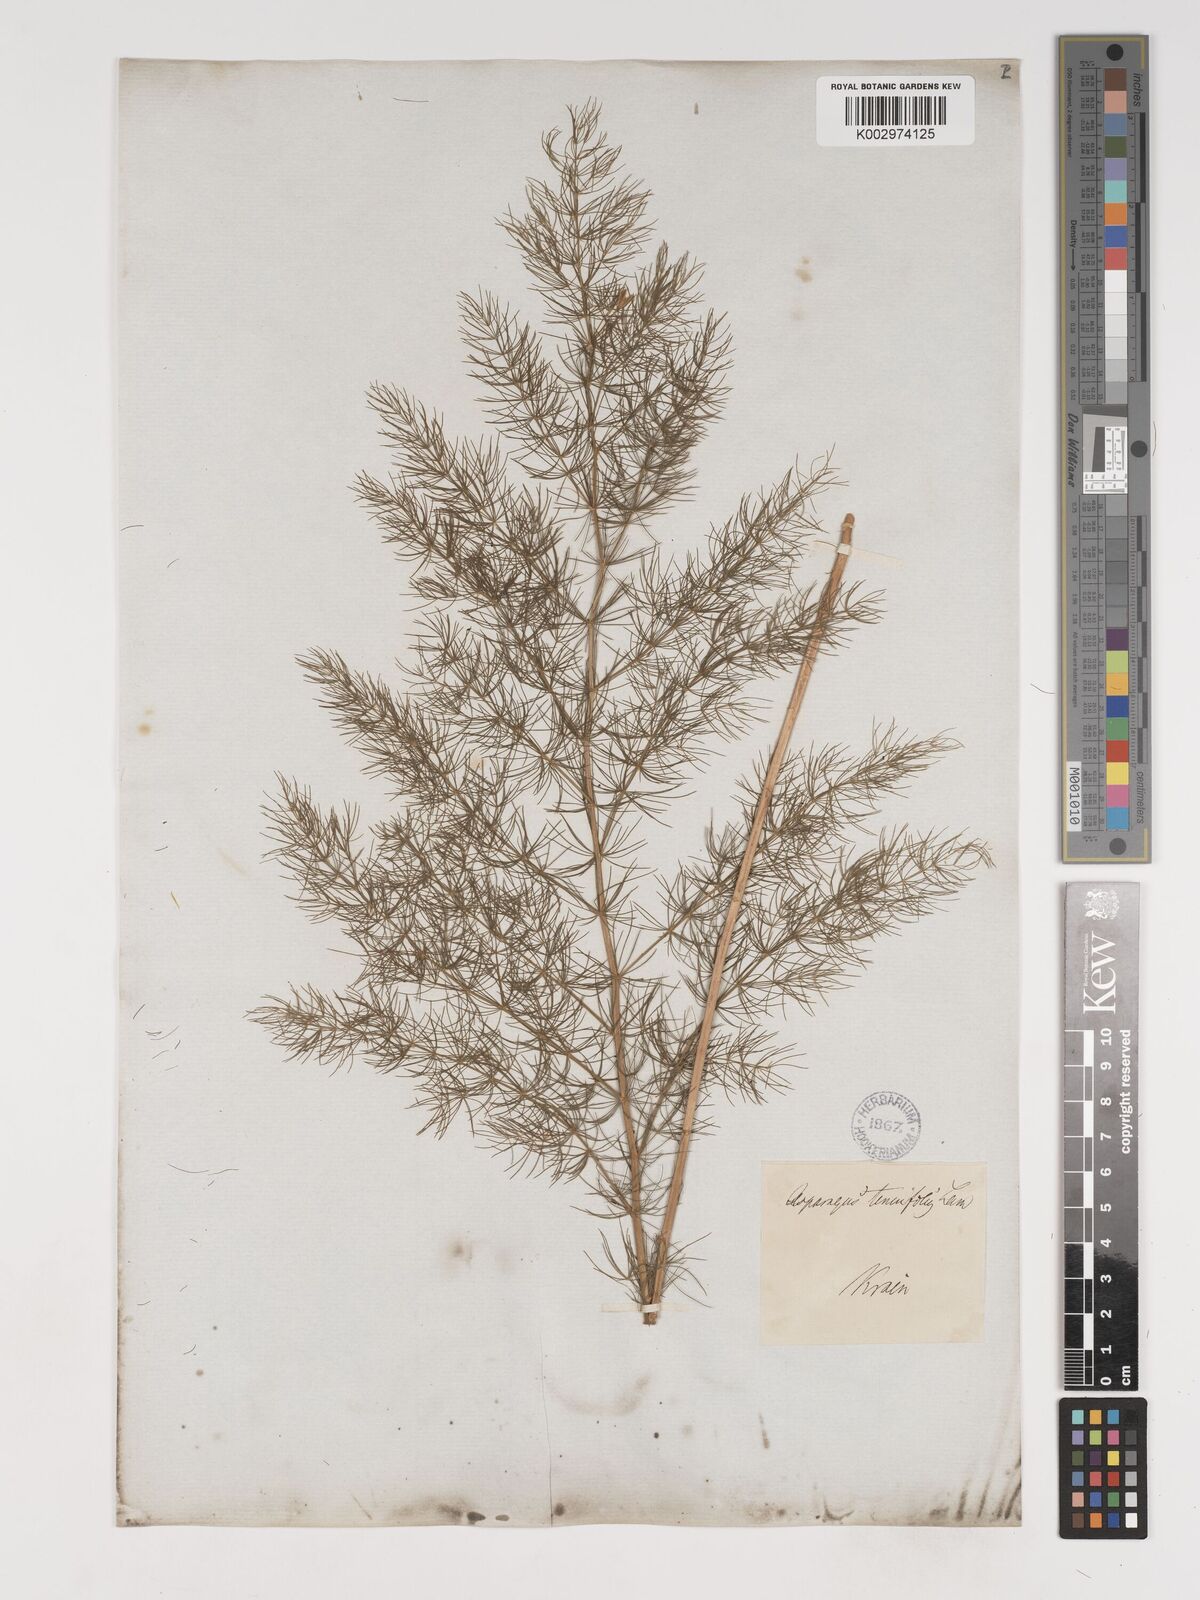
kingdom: Plantae
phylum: Tracheophyta
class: Liliopsida
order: Asparagales
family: Asparagaceae
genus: Asparagus
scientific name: Asparagus tenuifolius
